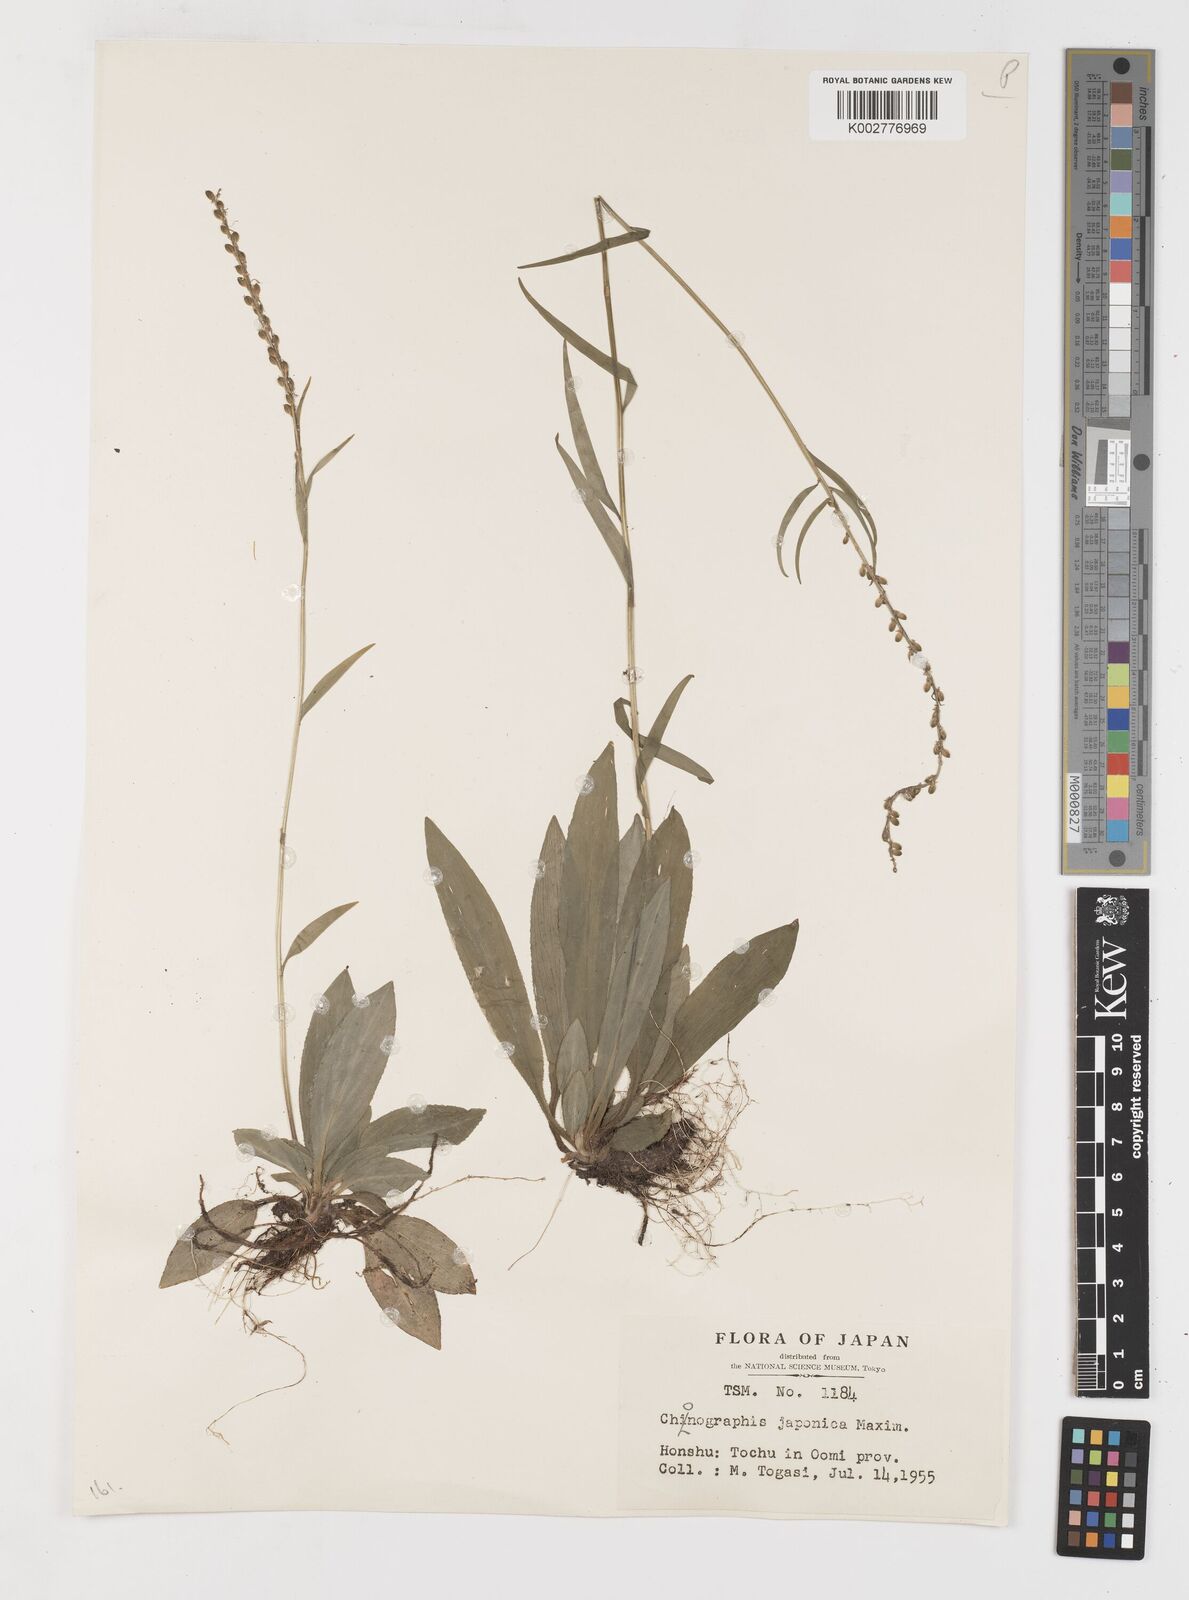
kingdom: Plantae
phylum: Tracheophyta
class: Liliopsida
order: Liliales
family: Melanthiaceae
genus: Chamaelirium
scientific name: Chamaelirium japonicum
